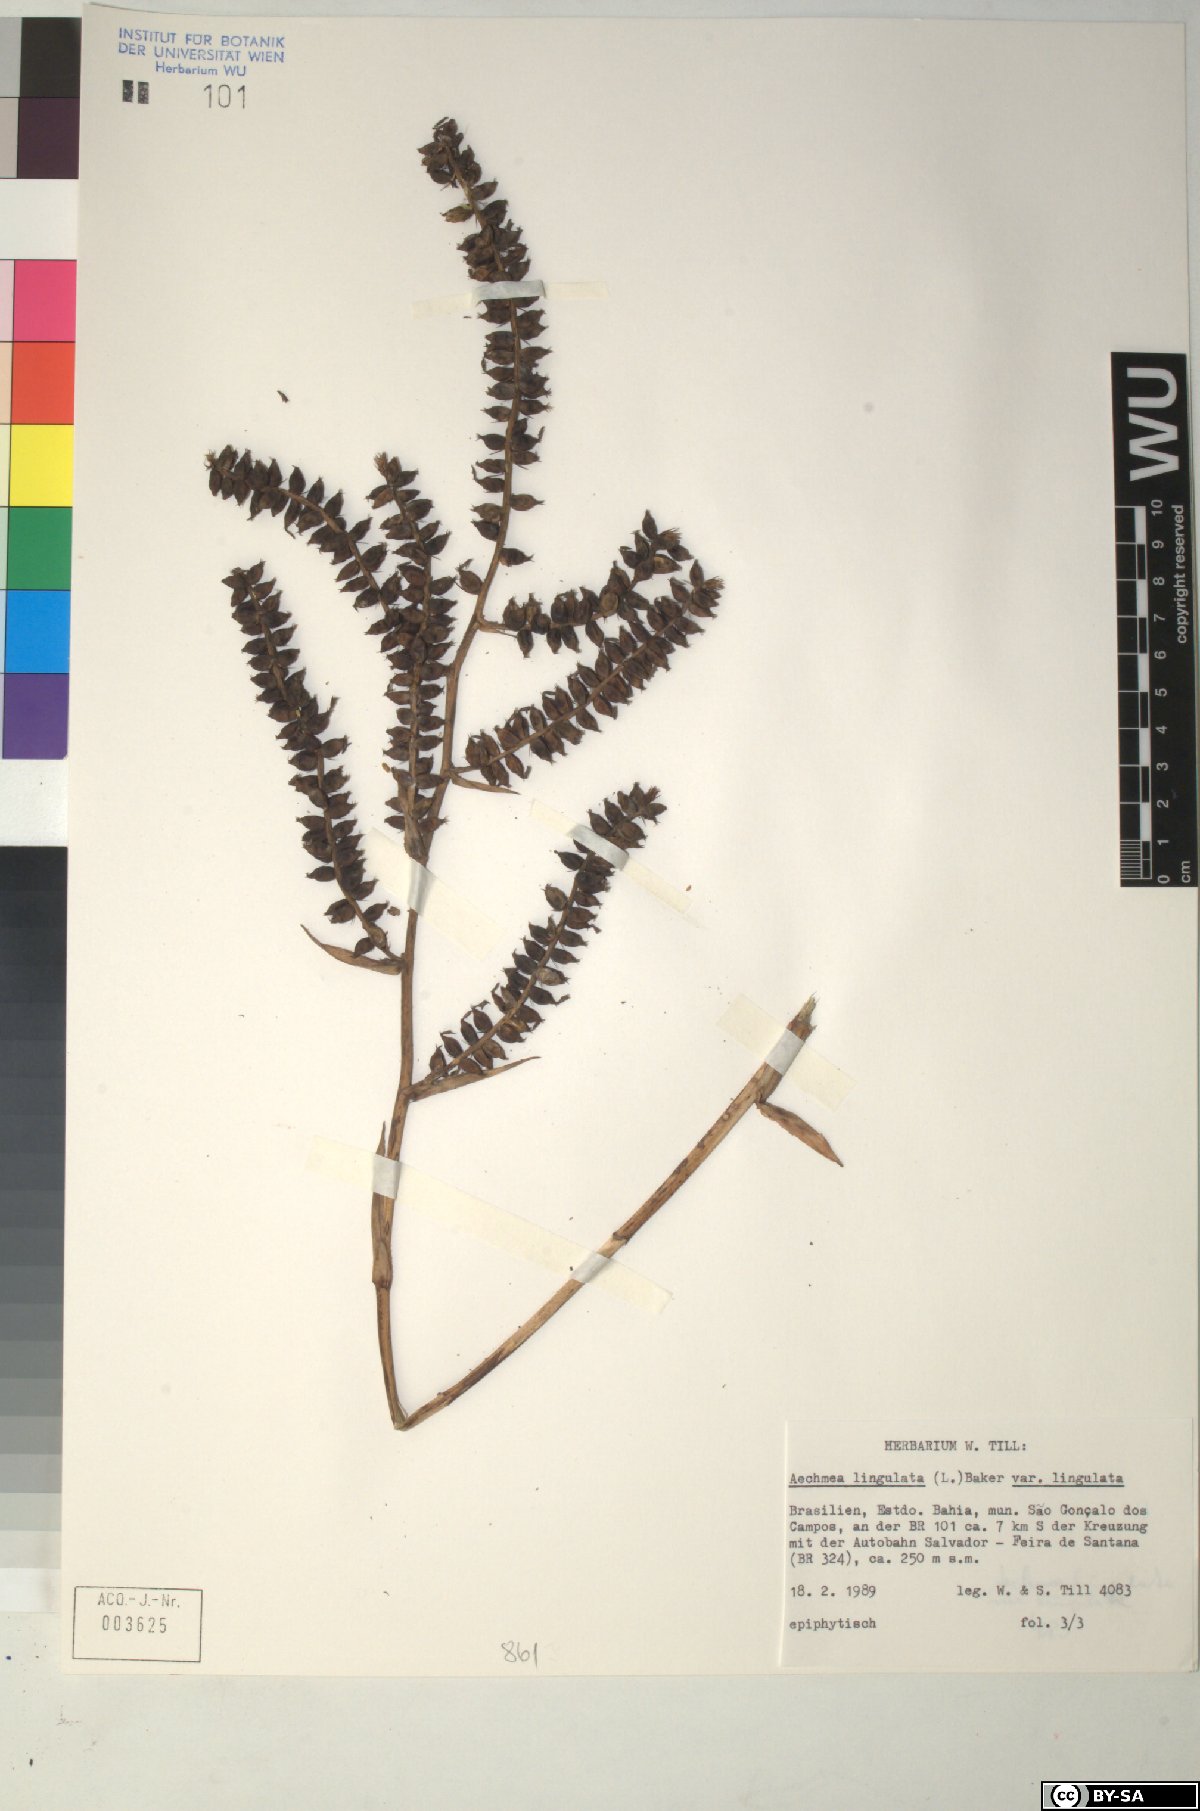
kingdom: Plantae
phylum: Tracheophyta
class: Liliopsida
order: Poales
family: Bromeliaceae
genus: Aechmea
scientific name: Aechmea
